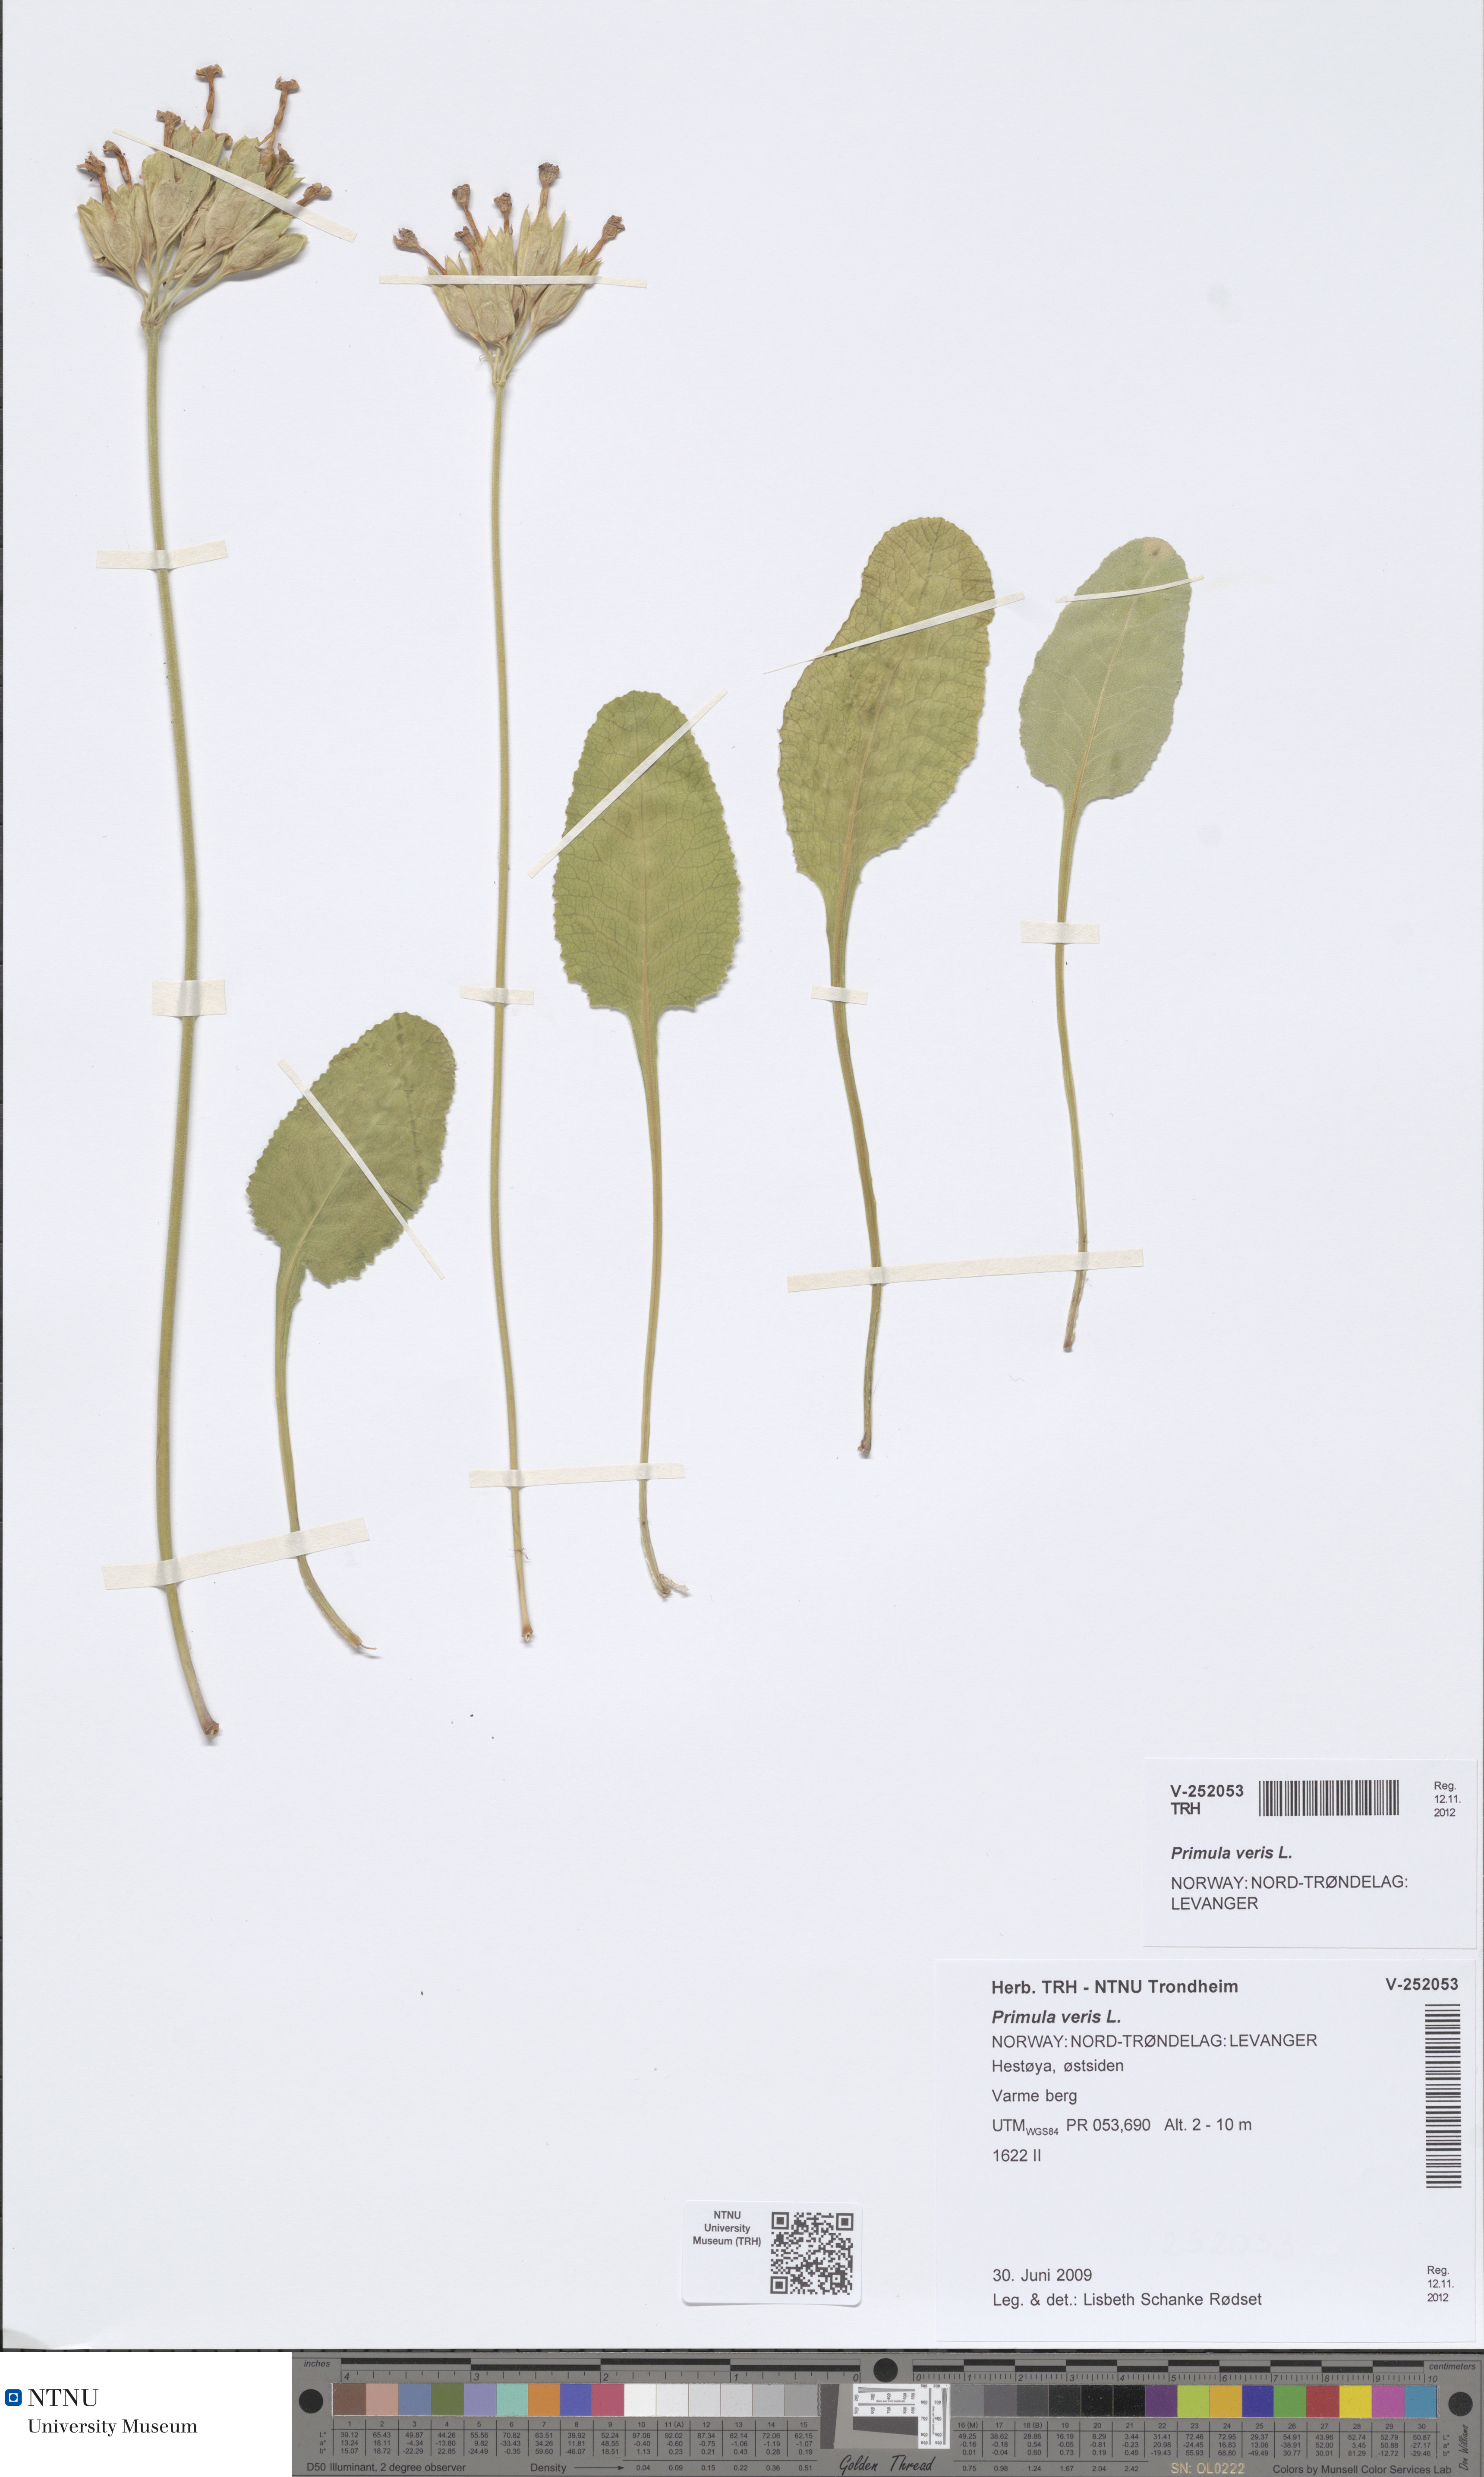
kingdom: Plantae
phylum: Tracheophyta
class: Magnoliopsida
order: Ericales
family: Primulaceae
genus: Primula
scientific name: Primula veris
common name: Cowslip
